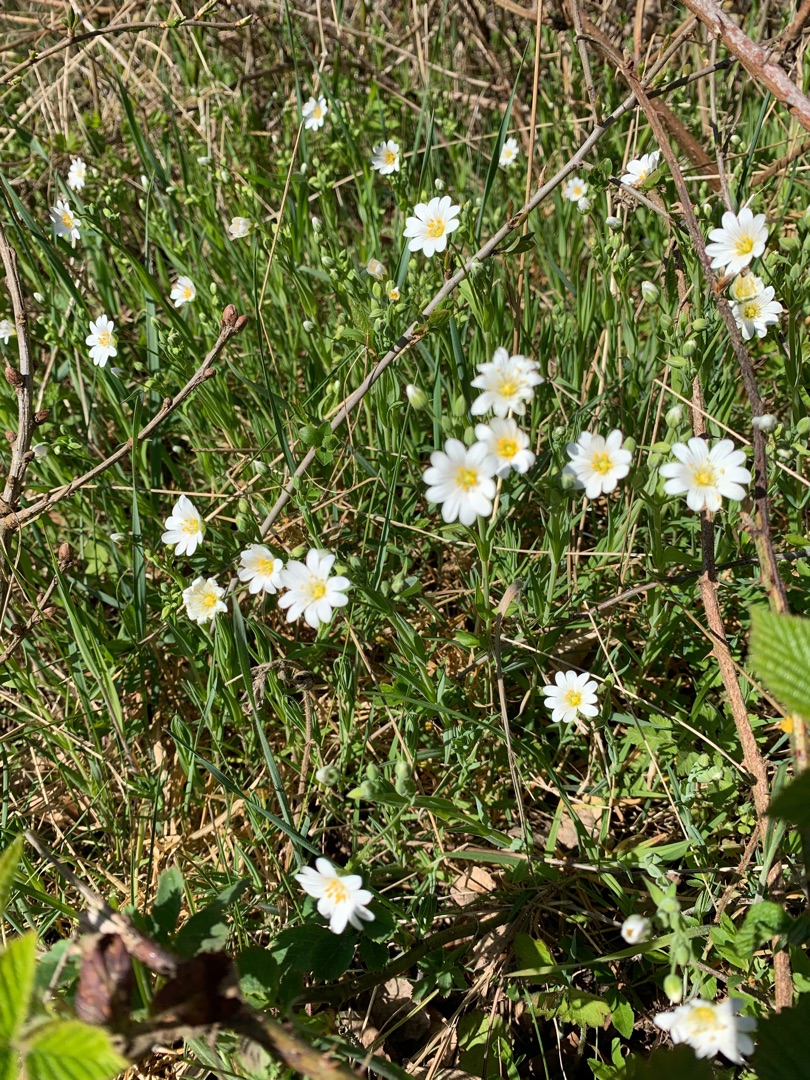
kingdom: Plantae
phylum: Tracheophyta
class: Magnoliopsida
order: Caryophyllales
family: Caryophyllaceae
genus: Rabelera
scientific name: Rabelera holostea
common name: Stor fladstjerne
